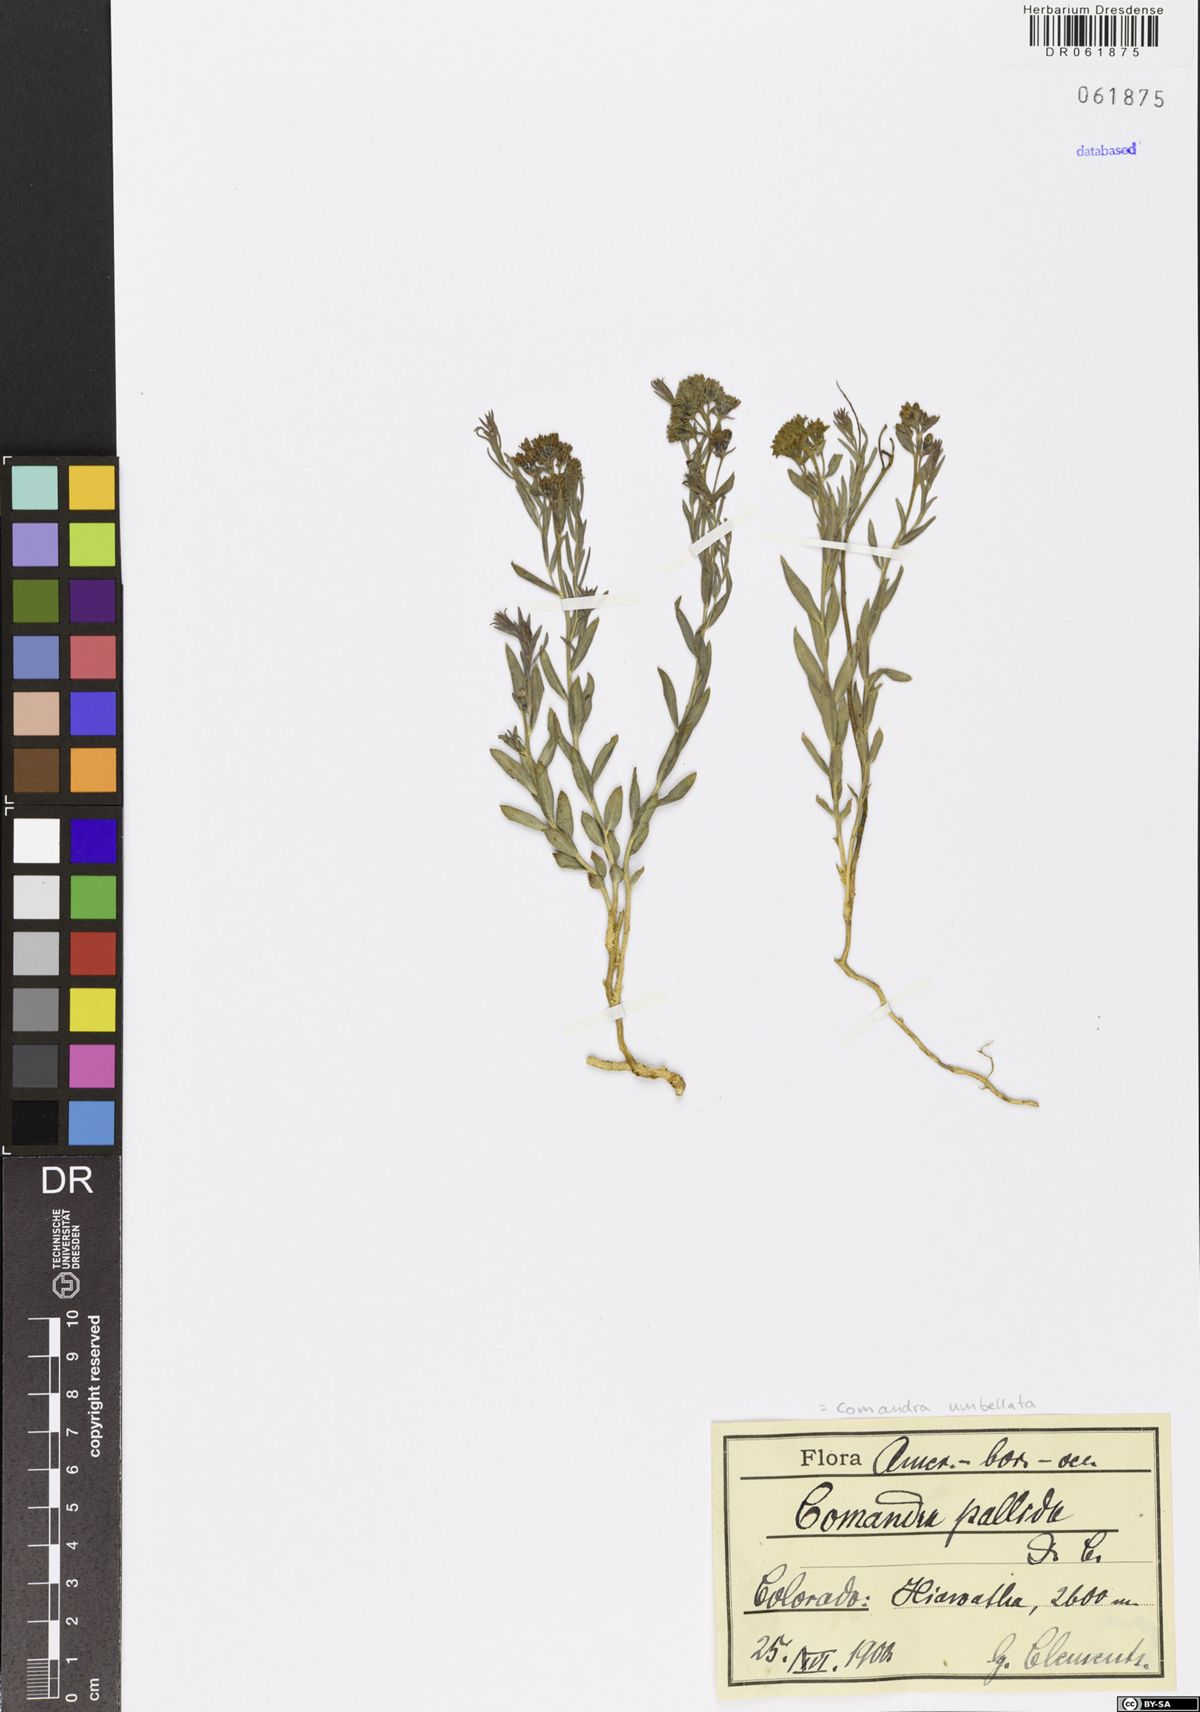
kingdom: Plantae
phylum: Tracheophyta
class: Magnoliopsida
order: Santalales
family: Comandraceae
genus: Comandra
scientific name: Comandra umbellata
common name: Bastard toadflax
